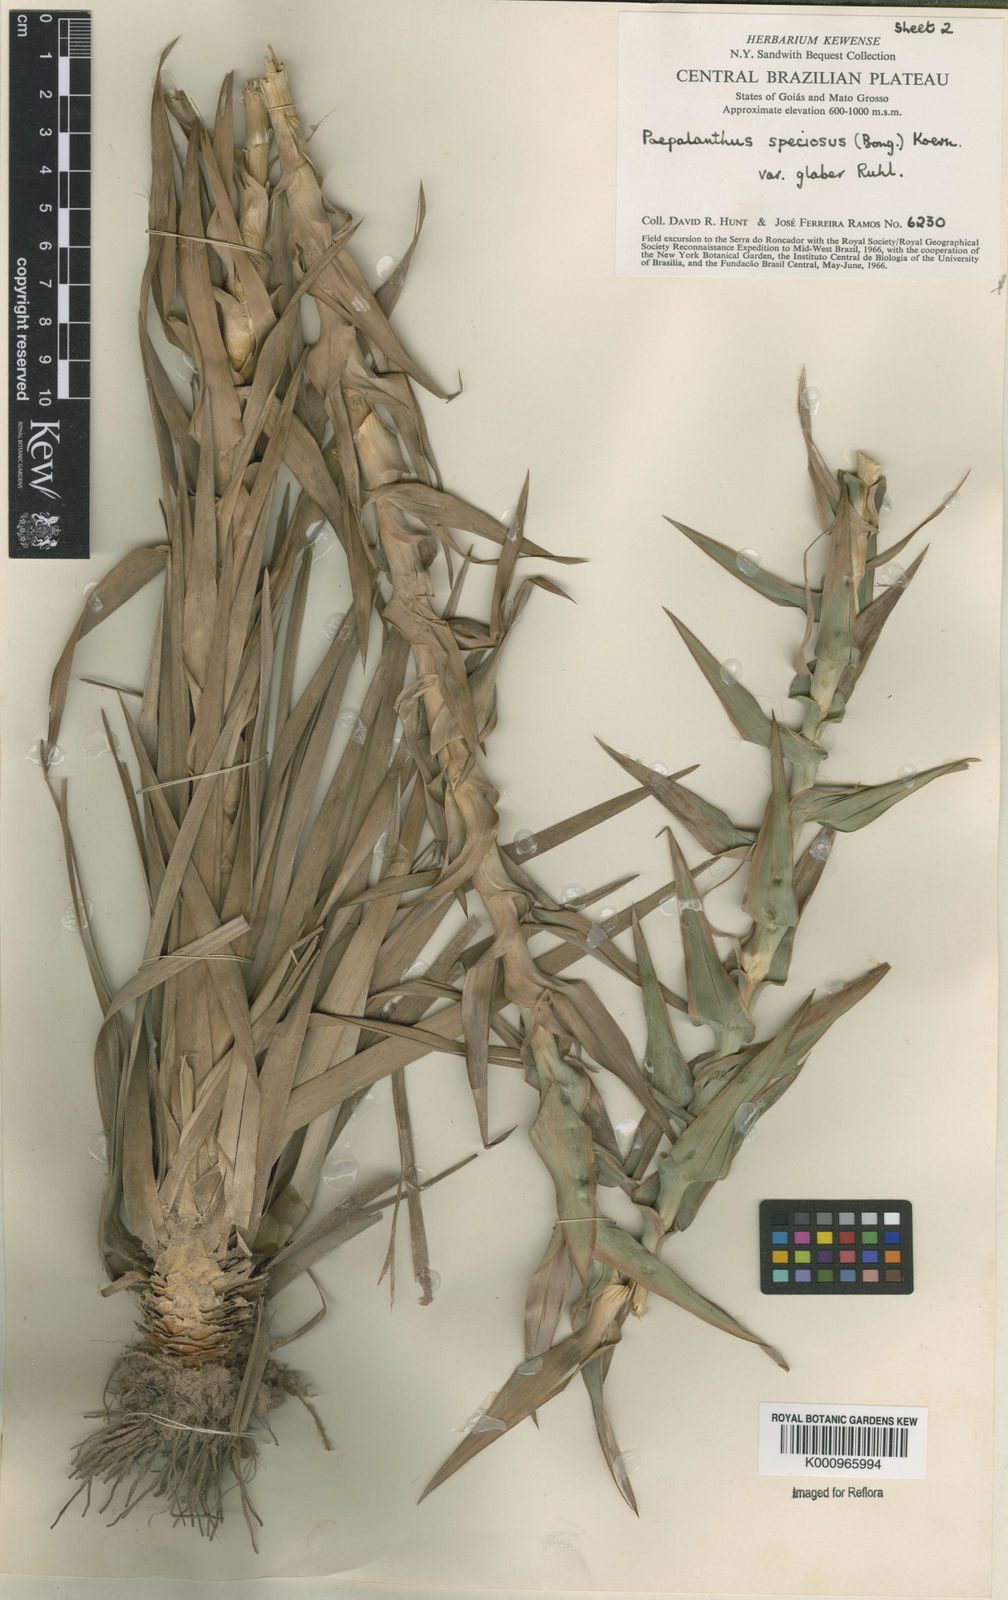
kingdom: Plantae
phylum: Tracheophyta
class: Liliopsida
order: Poales
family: Eriocaulaceae
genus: Paepalanthus
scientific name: Paepalanthus erectifolius
